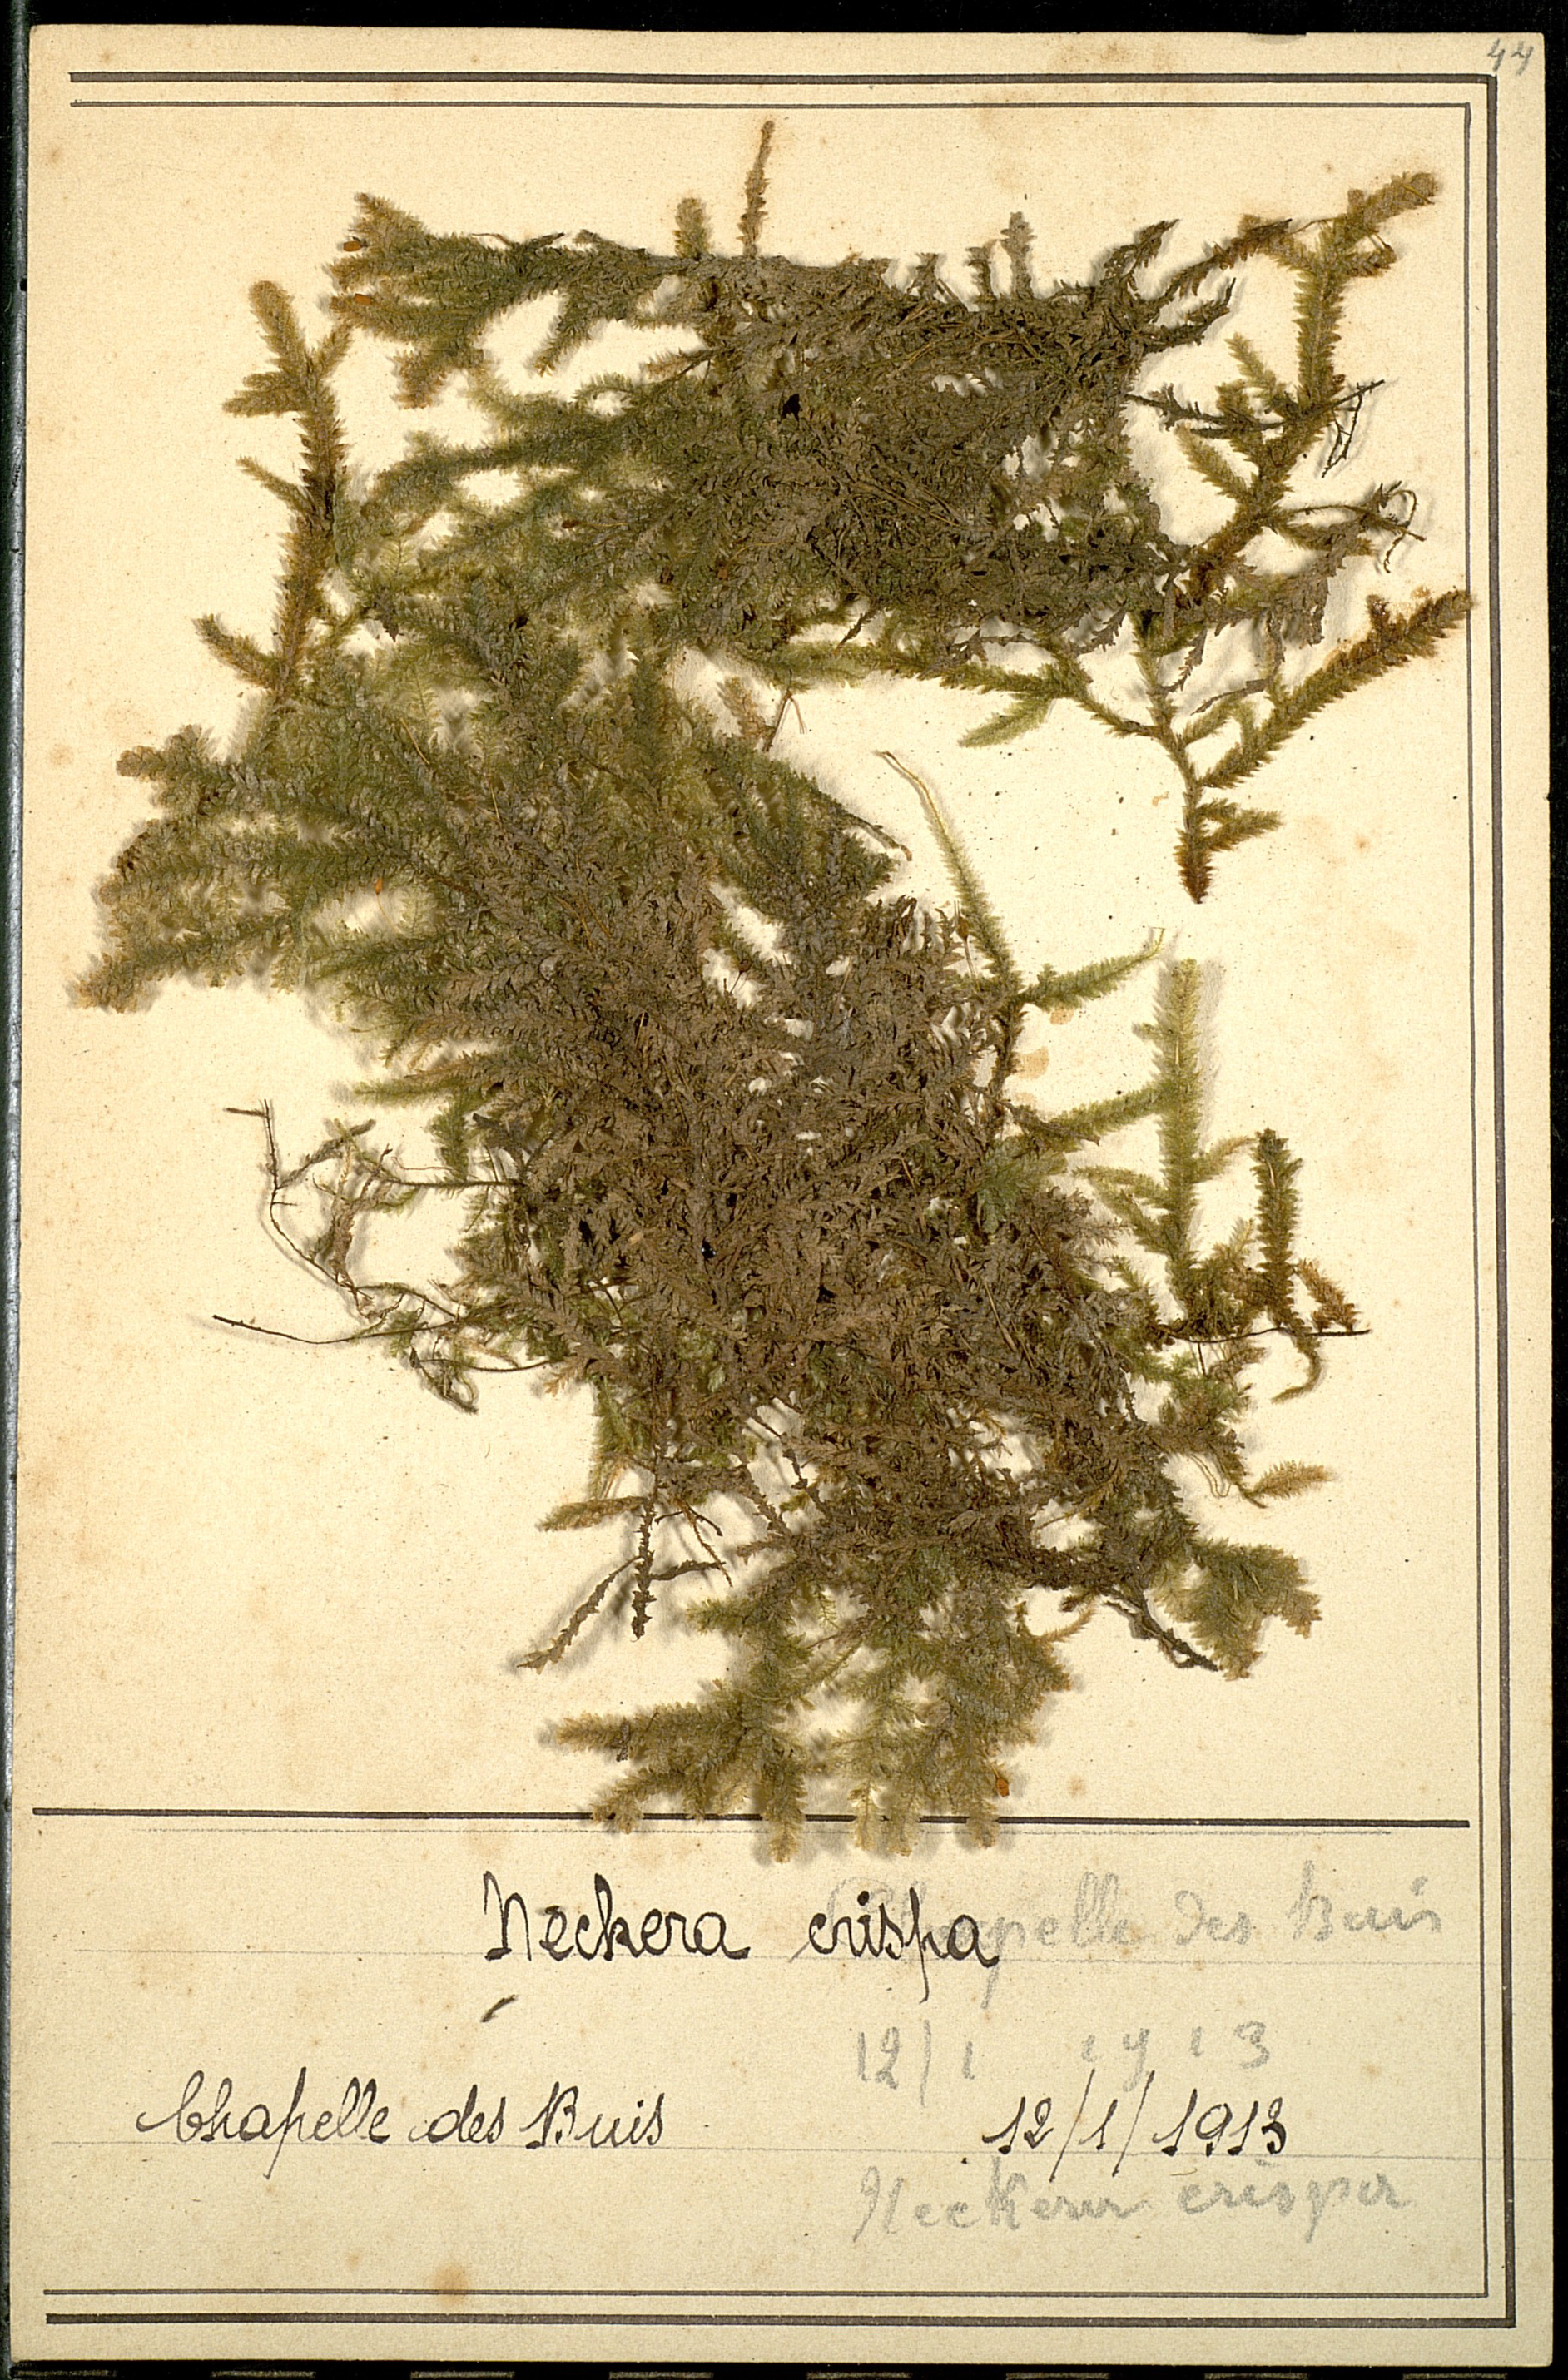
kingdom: Plantae
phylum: Bryophyta
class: Bryopsida
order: Hypnales
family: Neckeraceae
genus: Exsertotheca
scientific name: Exsertotheca crispa
